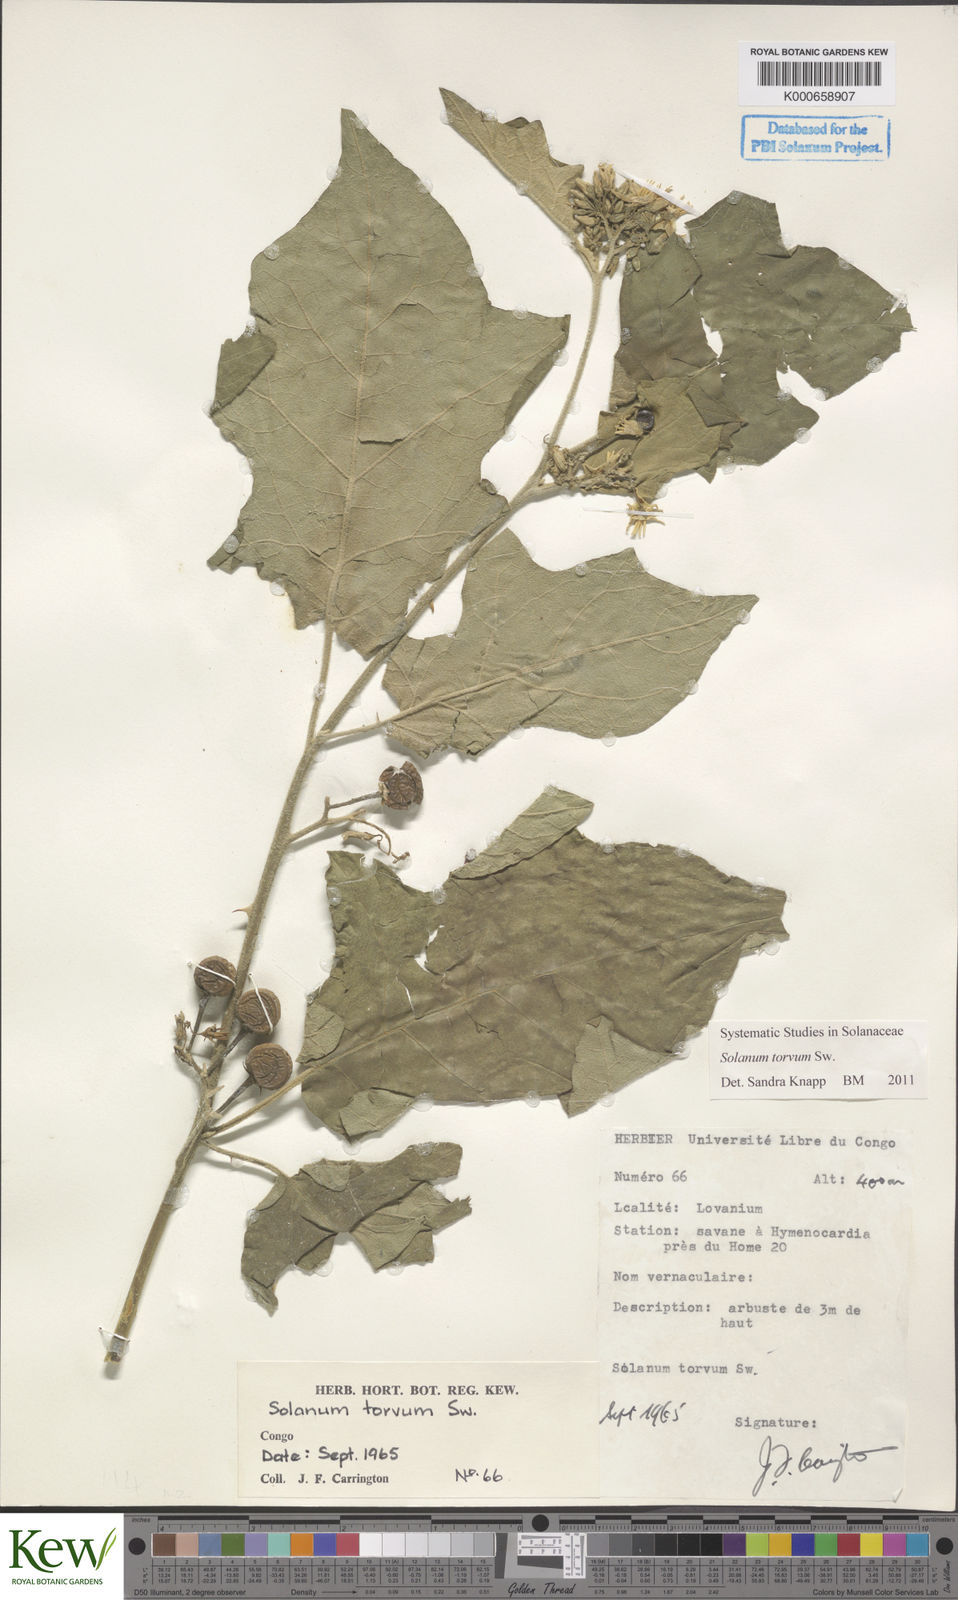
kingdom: Plantae
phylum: Tracheophyta
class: Magnoliopsida
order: Solanales
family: Solanaceae
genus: Solanum
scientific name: Solanum torvum
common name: Turkey berry
